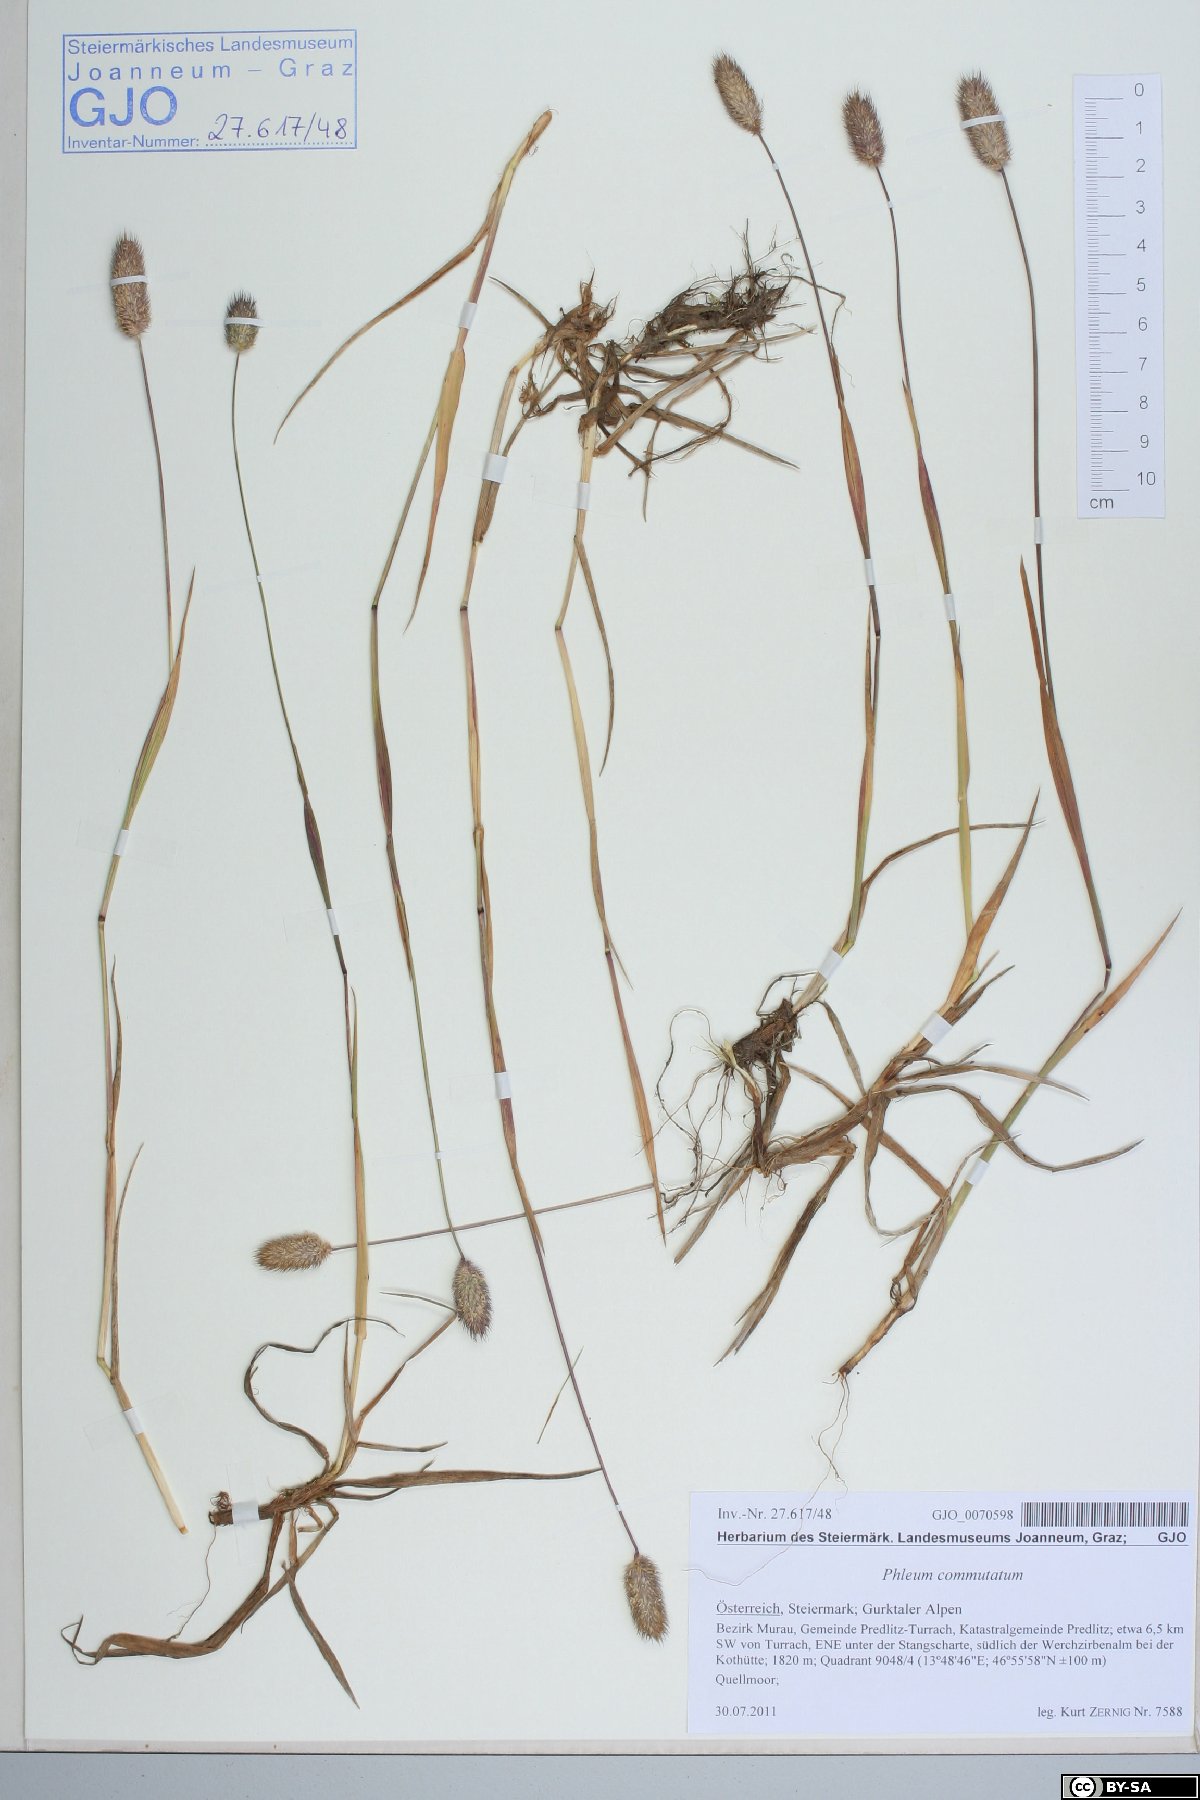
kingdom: Plantae
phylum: Tracheophyta
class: Liliopsida
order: Poales
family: Poaceae
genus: Phleum
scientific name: Phleum alpinum
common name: Alpine cat's-tail
